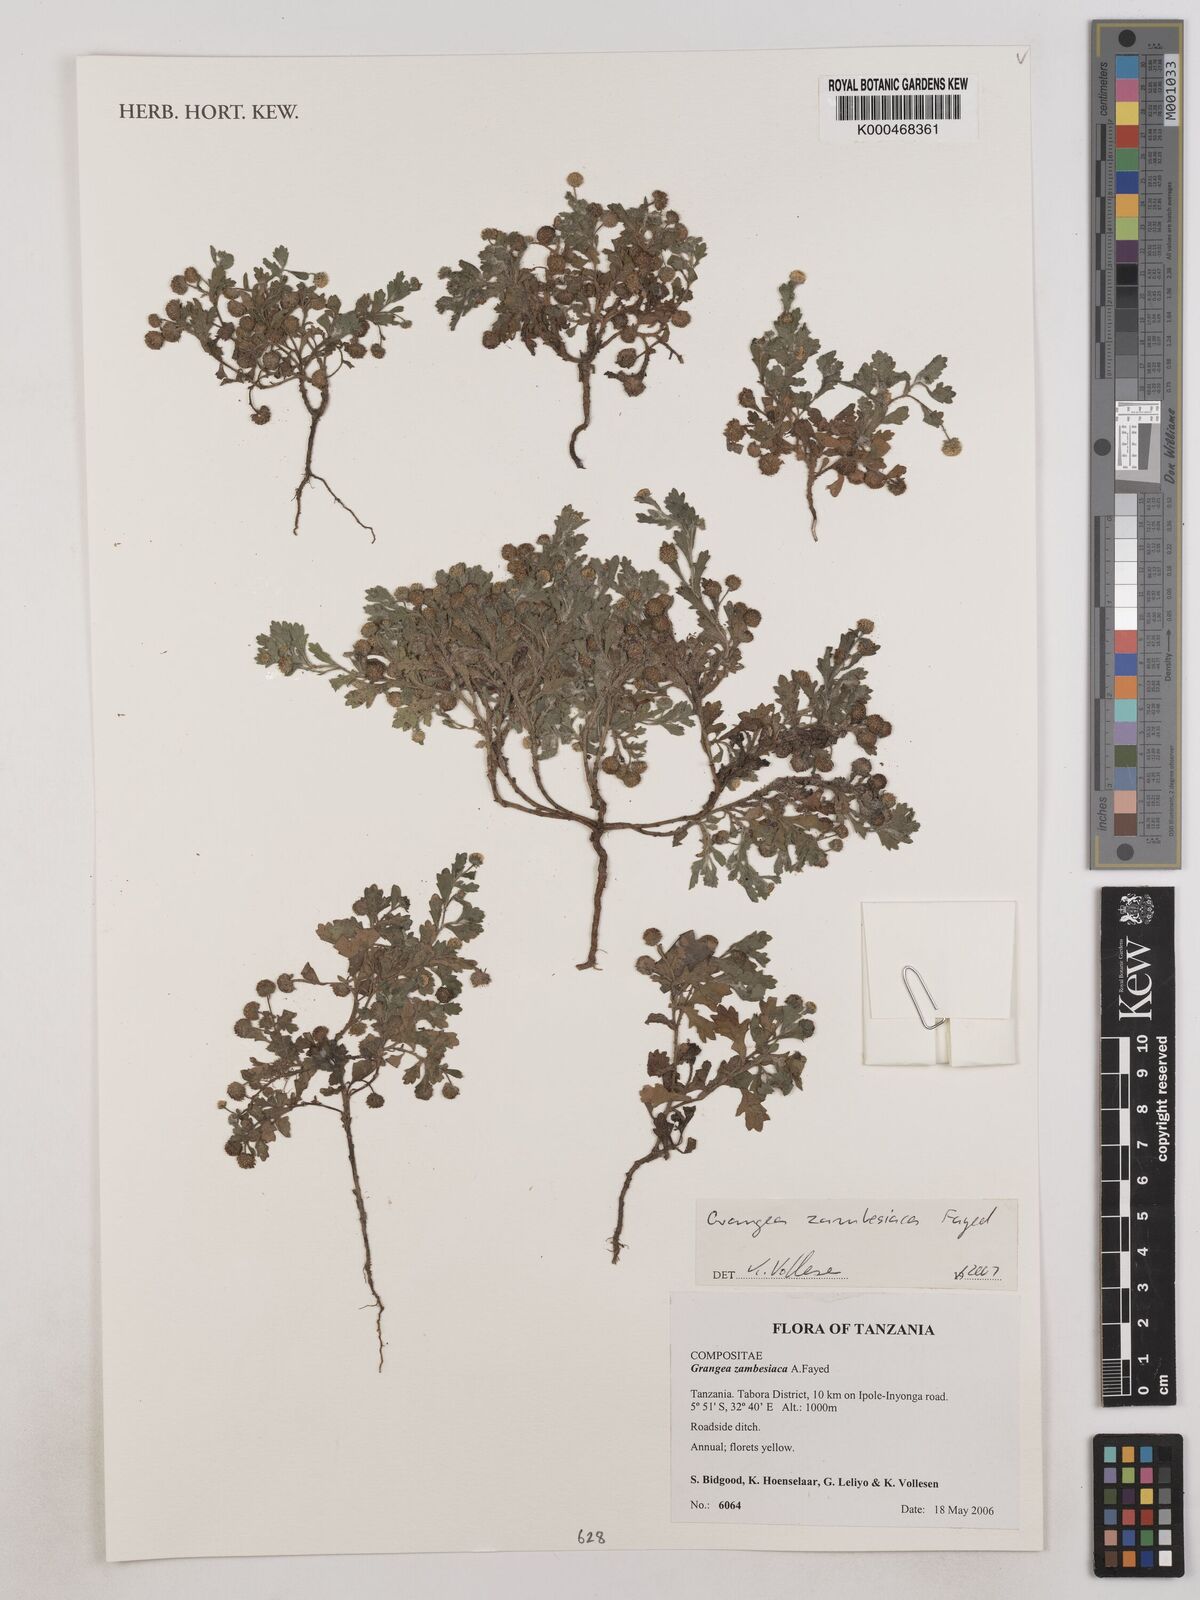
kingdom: Plantae
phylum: Tracheophyta
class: Magnoliopsida
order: Asterales
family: Asteraceae
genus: Grangea
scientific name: Grangea zambesiaca
